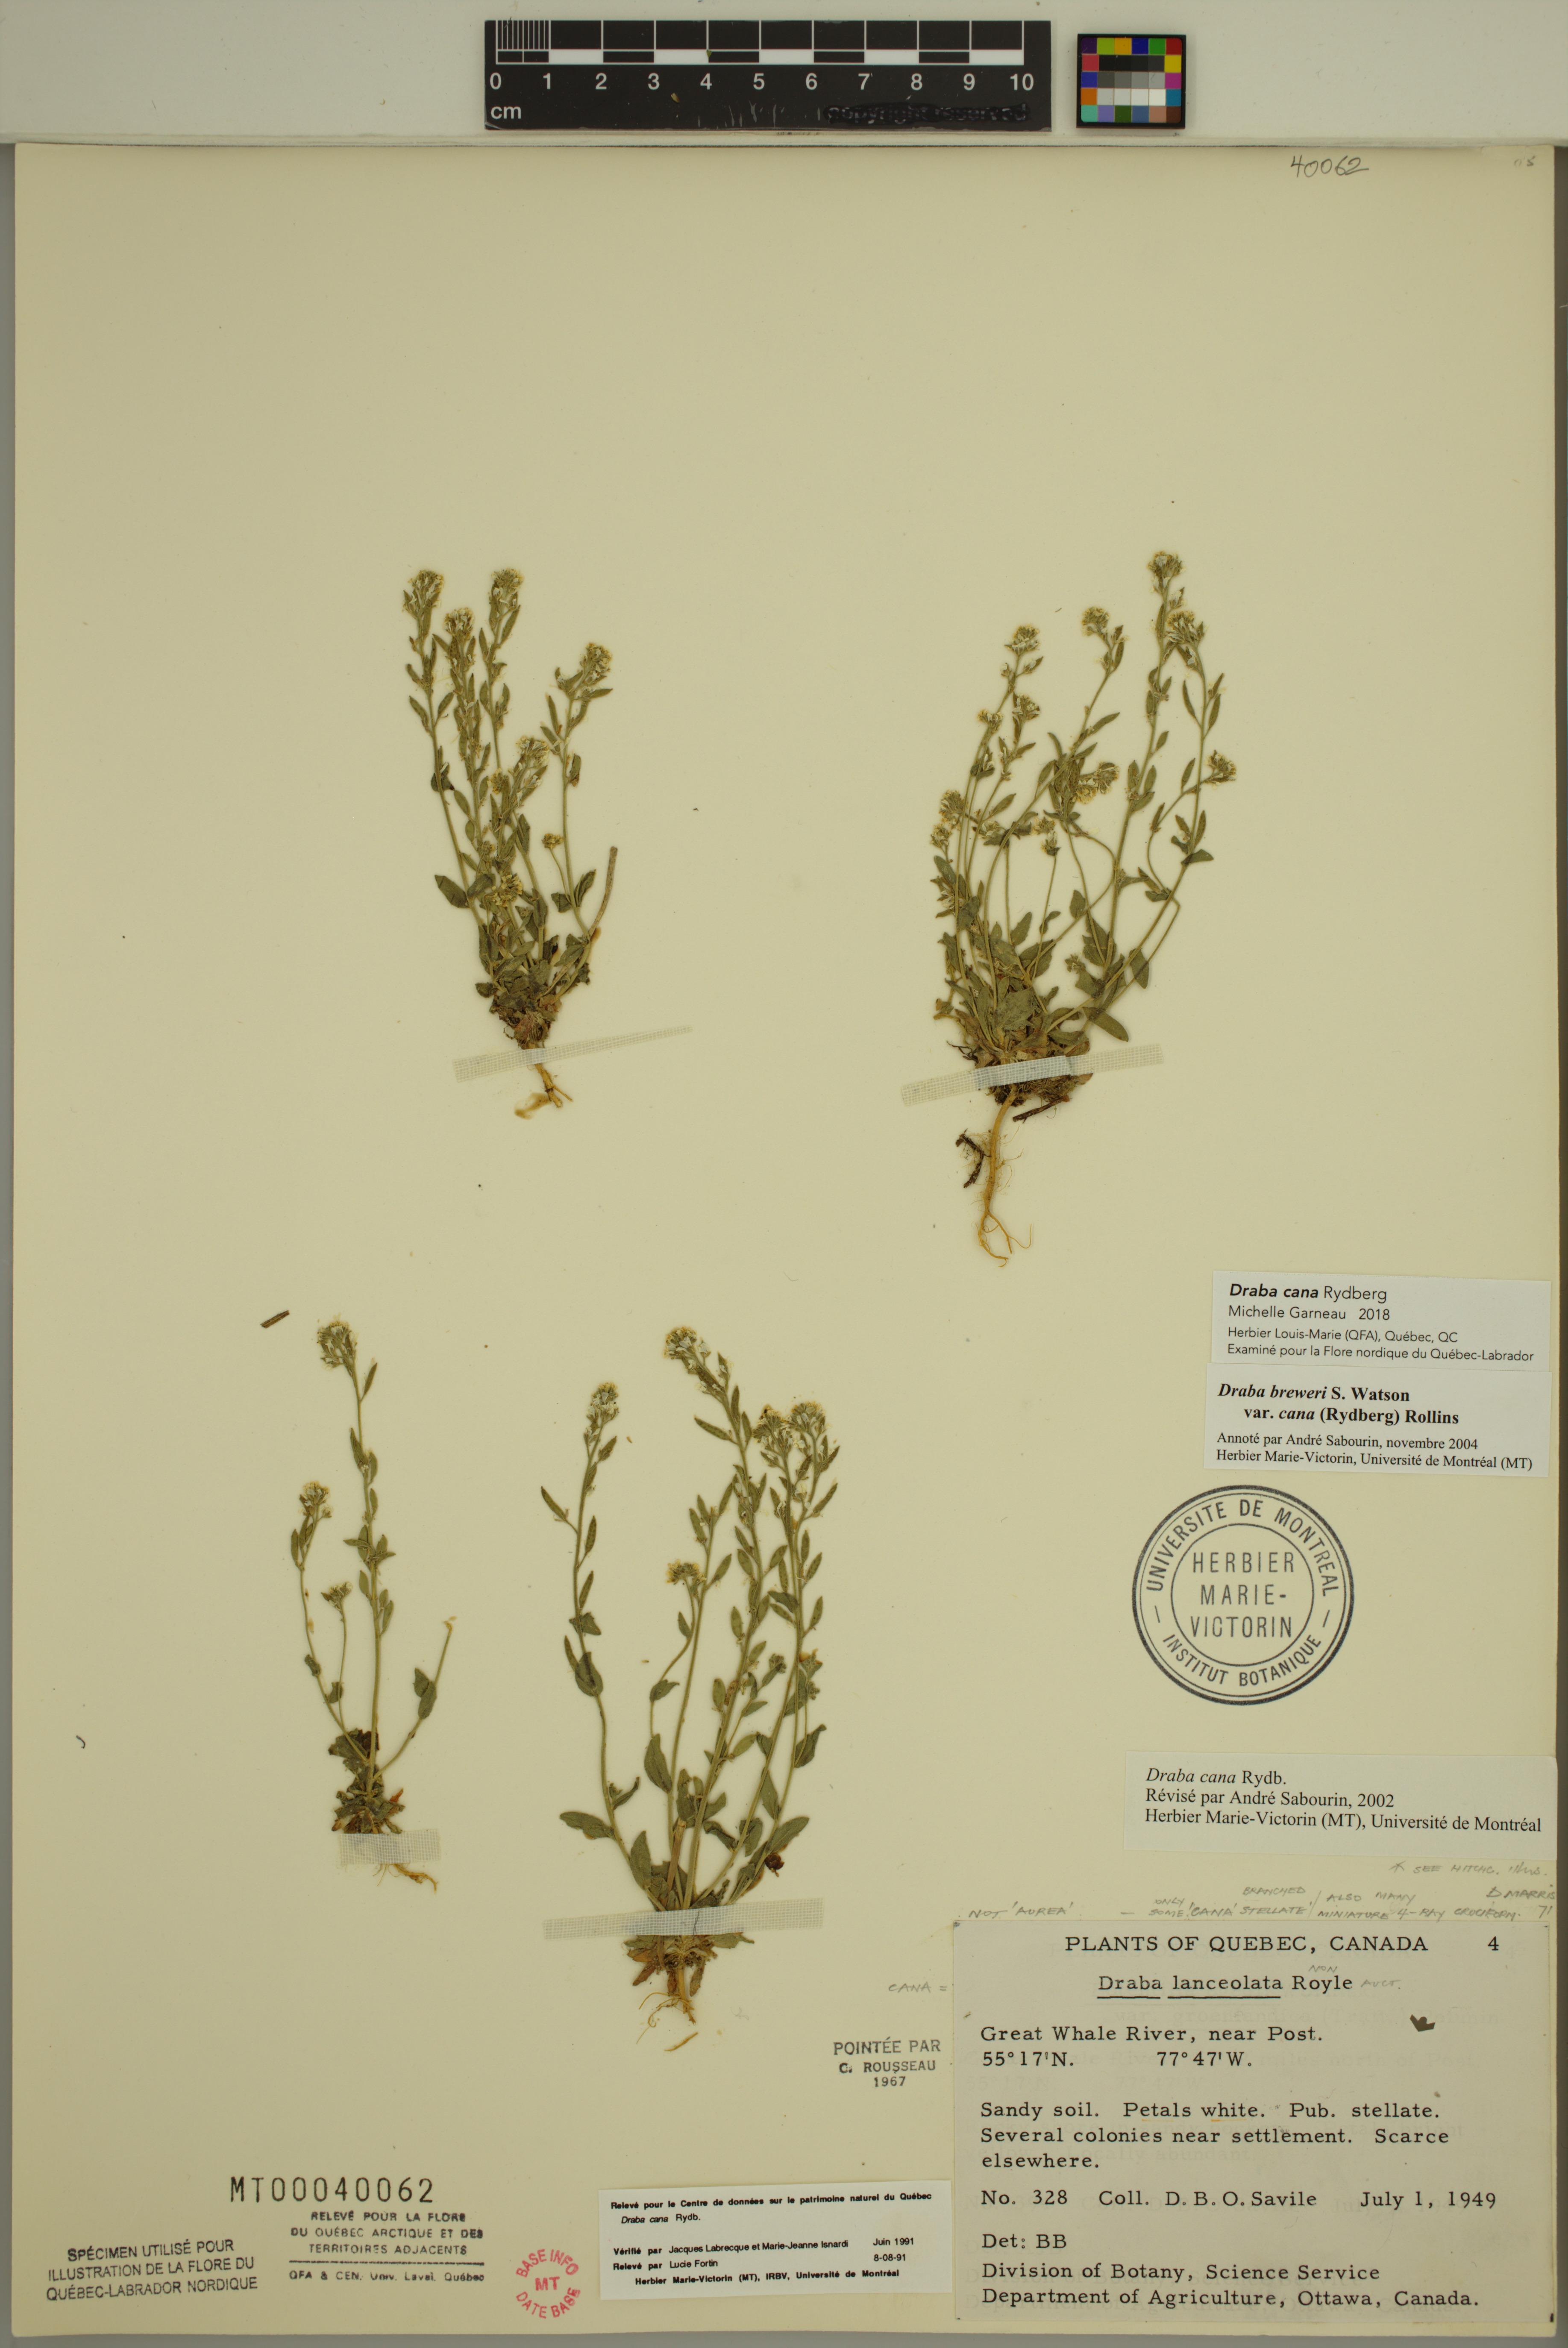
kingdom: Plantae
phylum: Tracheophyta
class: Magnoliopsida
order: Brassicales
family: Brassicaceae
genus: Draba
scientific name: Draba cana
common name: Hoary draba
